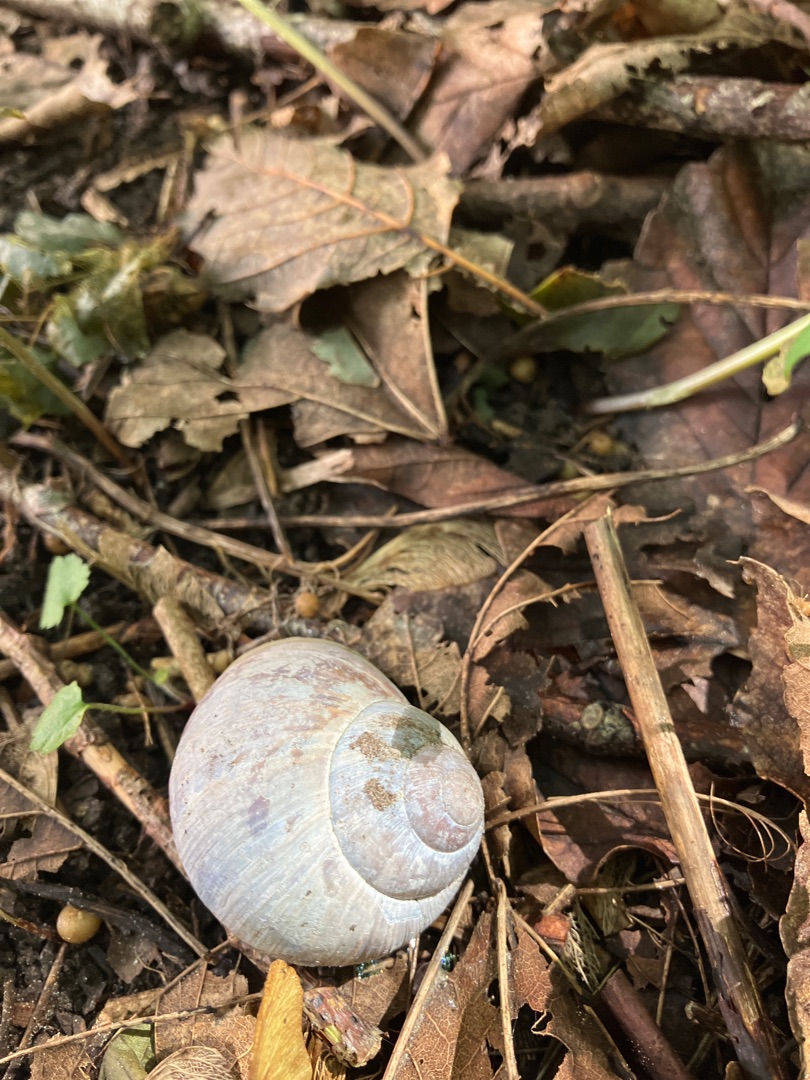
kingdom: Animalia
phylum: Mollusca
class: Gastropoda
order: Stylommatophora
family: Helicidae
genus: Helix
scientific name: Helix pomatia
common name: Vinbjergsnegl
